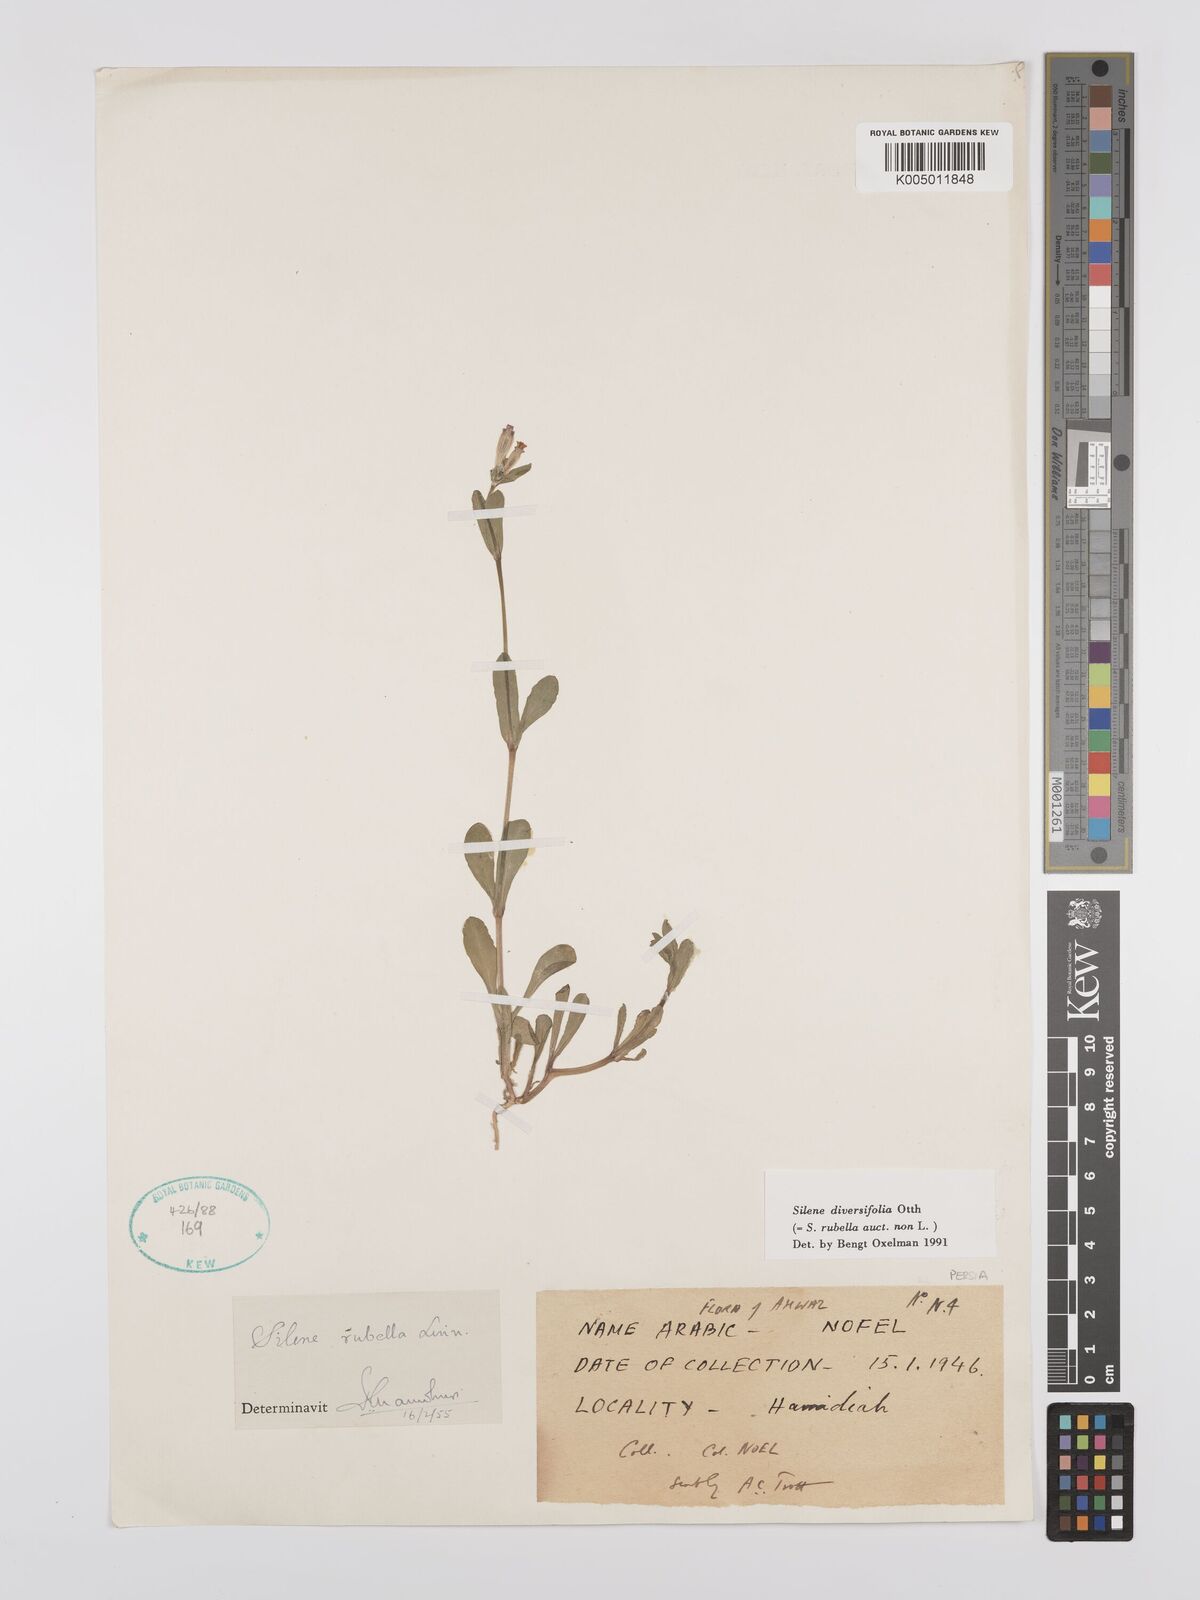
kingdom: Plantae
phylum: Tracheophyta
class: Magnoliopsida
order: Caryophyllales
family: Caryophyllaceae
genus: Silene
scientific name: Silene rubella
